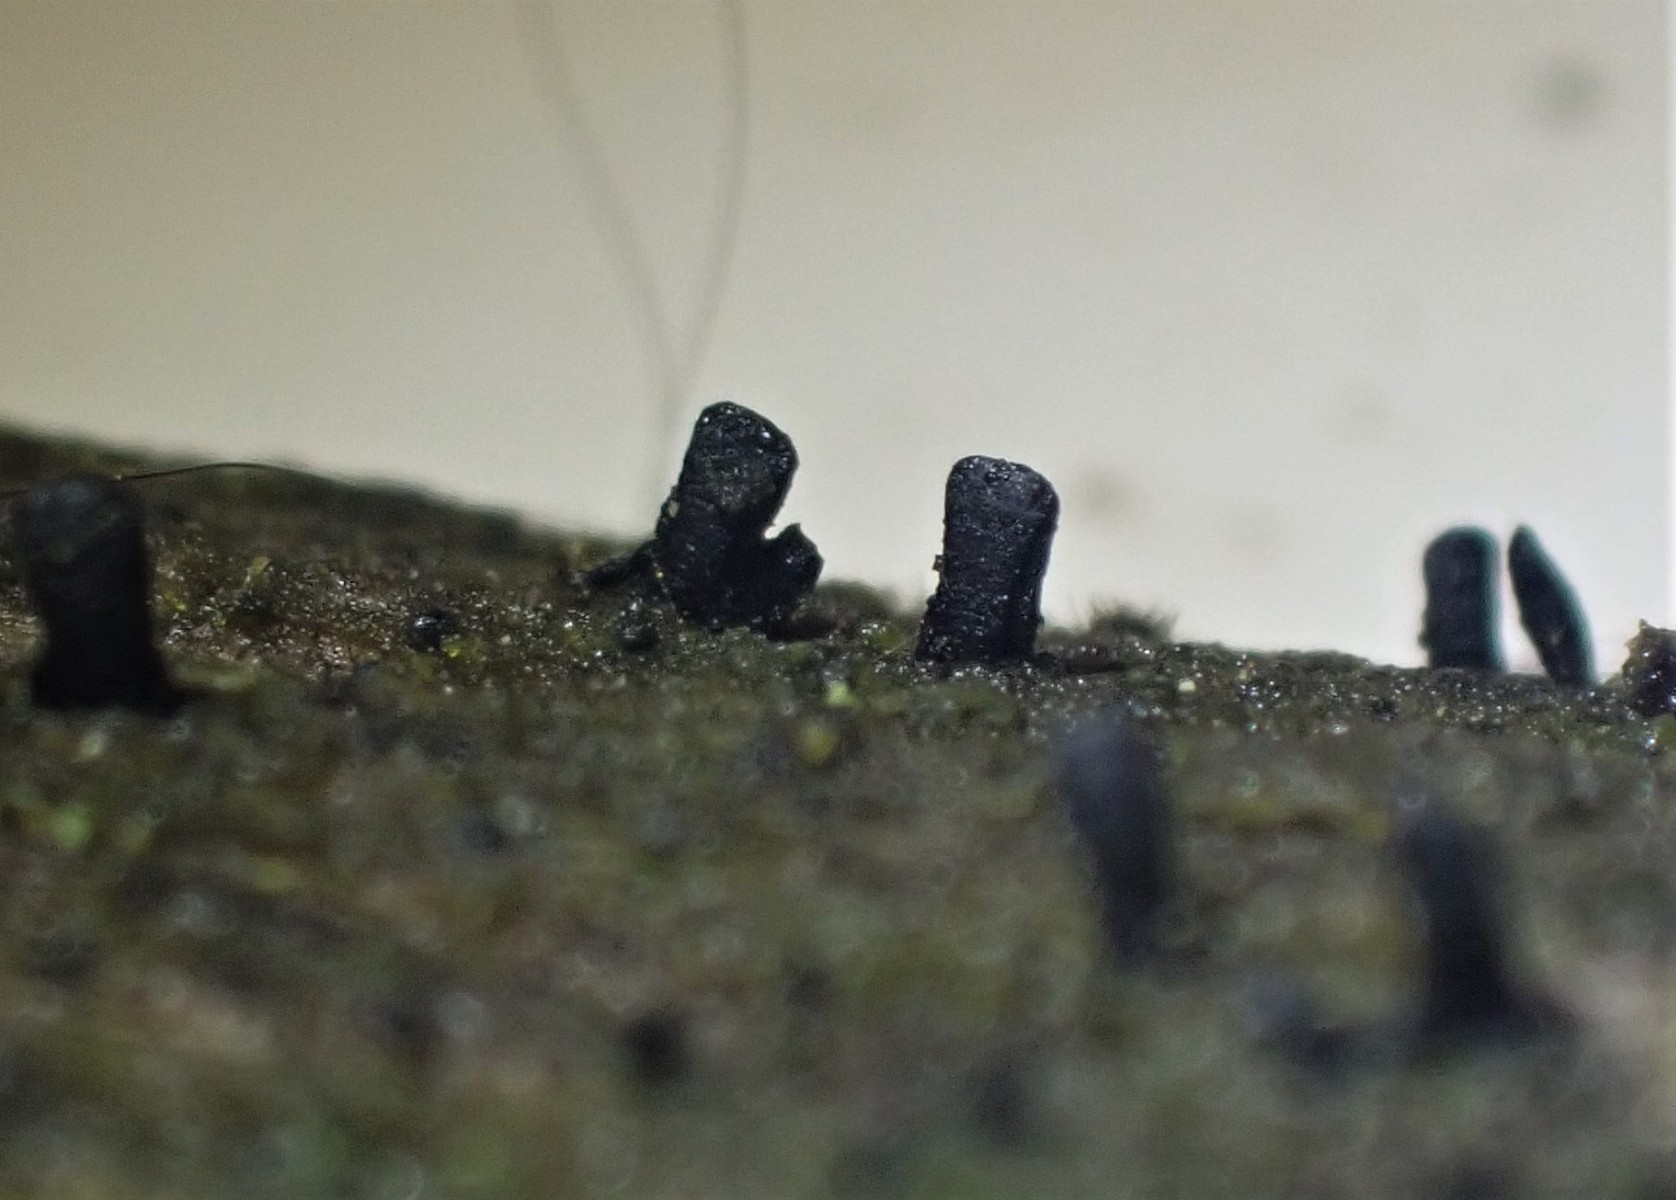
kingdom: Fungi
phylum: Ascomycota
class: Eurotiomycetes
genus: Glyphium
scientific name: Glyphium elatum
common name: kuløkse
